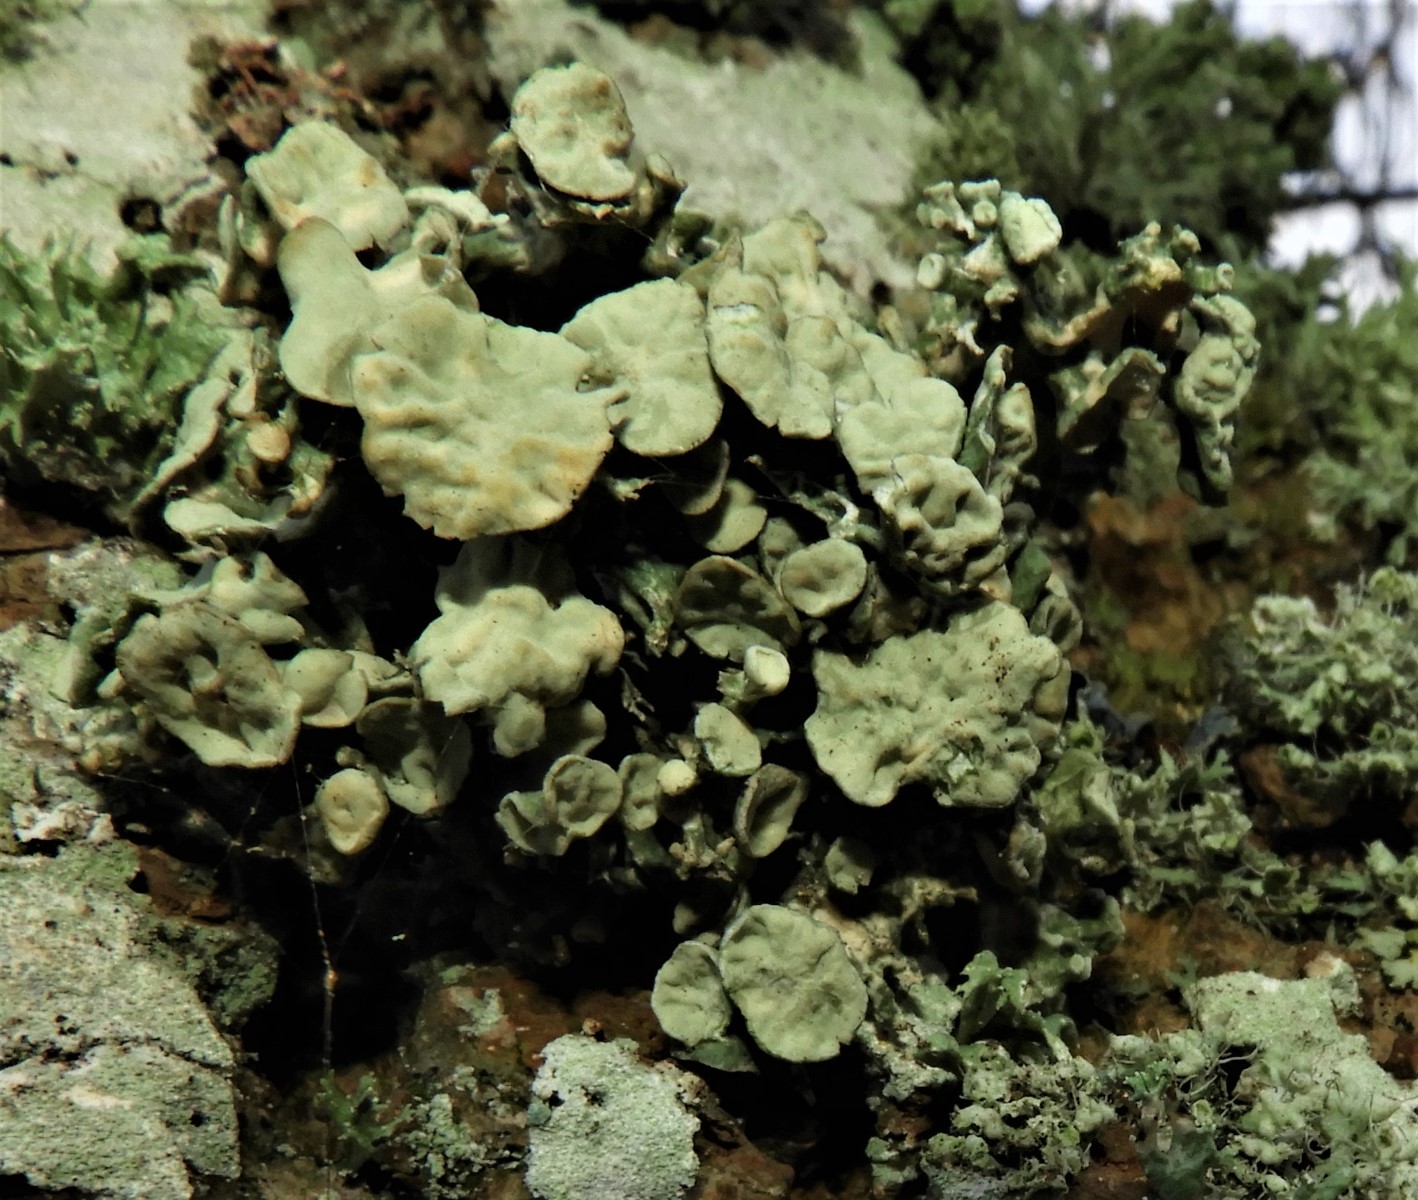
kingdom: Fungi
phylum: Ascomycota
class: Lecanoromycetes
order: Lecanorales
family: Ramalinaceae
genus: Ramalina
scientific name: Ramalina fastigiata
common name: tue-grenlav
